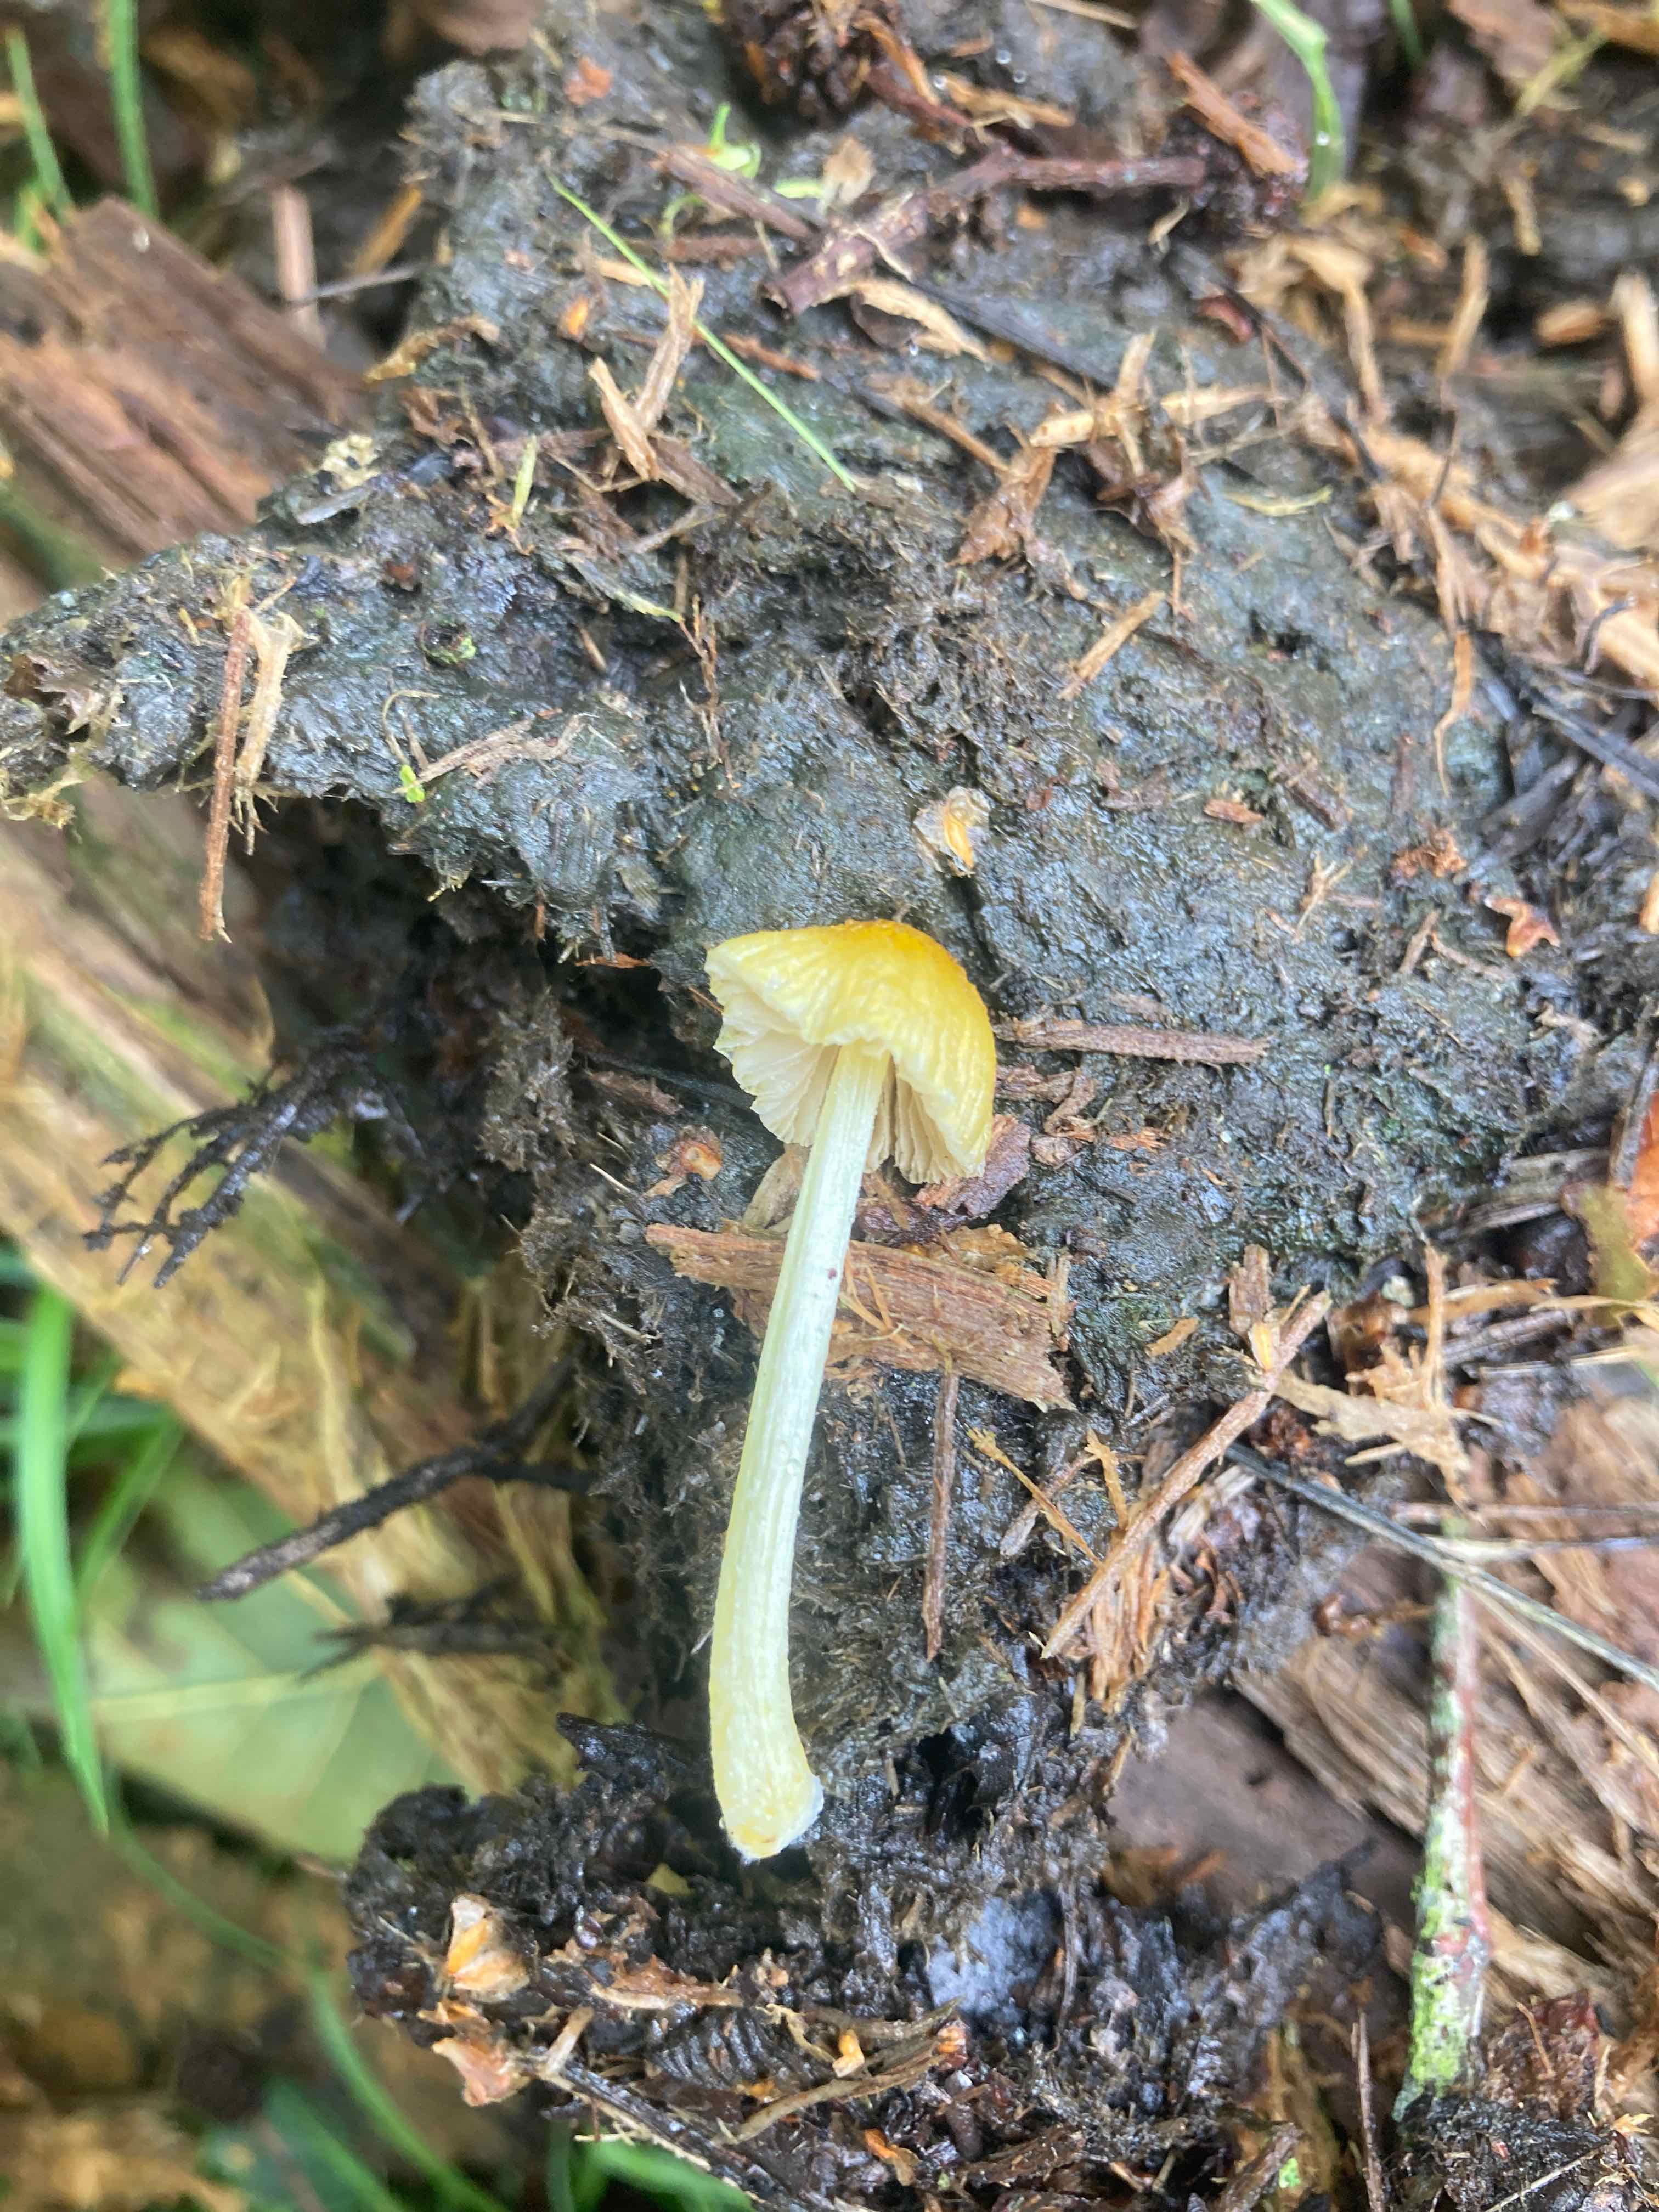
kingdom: Fungi
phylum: Basidiomycota
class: Agaricomycetes
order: Agaricales
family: Bolbitiaceae
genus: Bolbitius
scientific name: Bolbitius titubans
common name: almindelig gulhat
